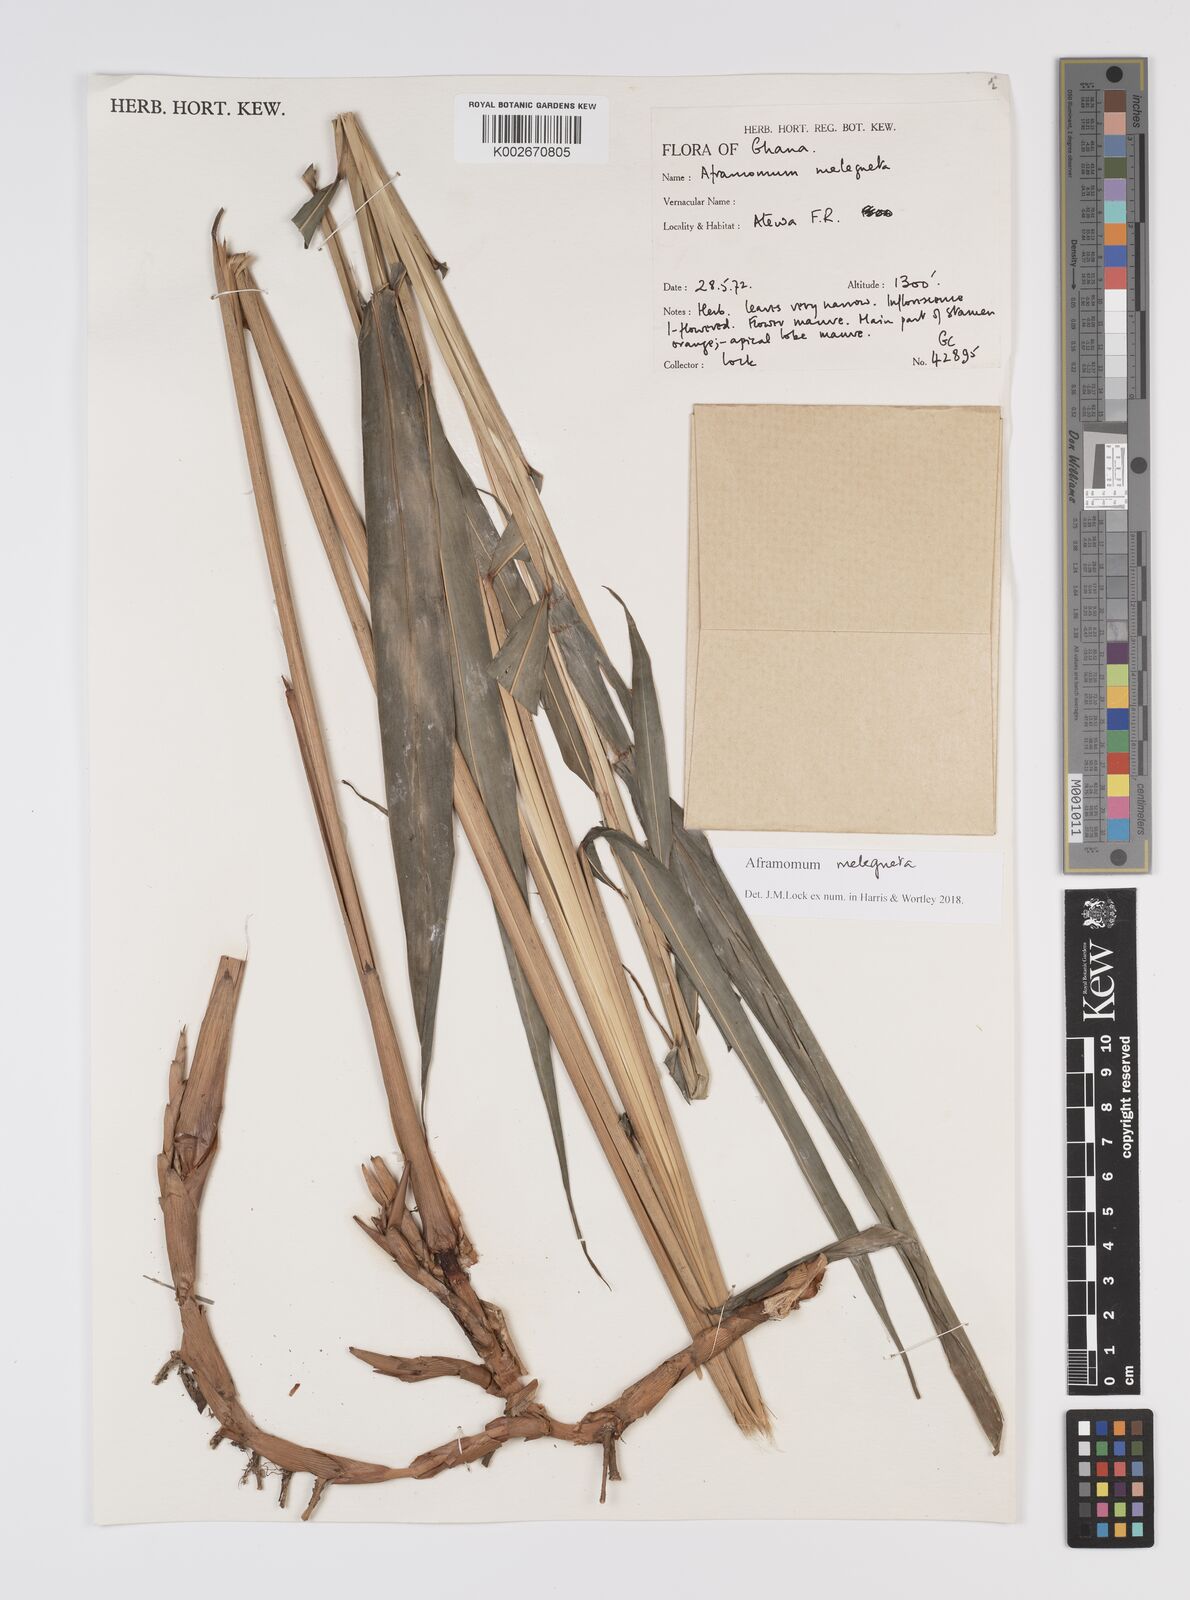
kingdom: Plantae
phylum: Tracheophyta
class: Liliopsida
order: Zingiberales
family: Zingiberaceae
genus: Aframomum
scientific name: Aframomum melegueta
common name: Grains of paradise
